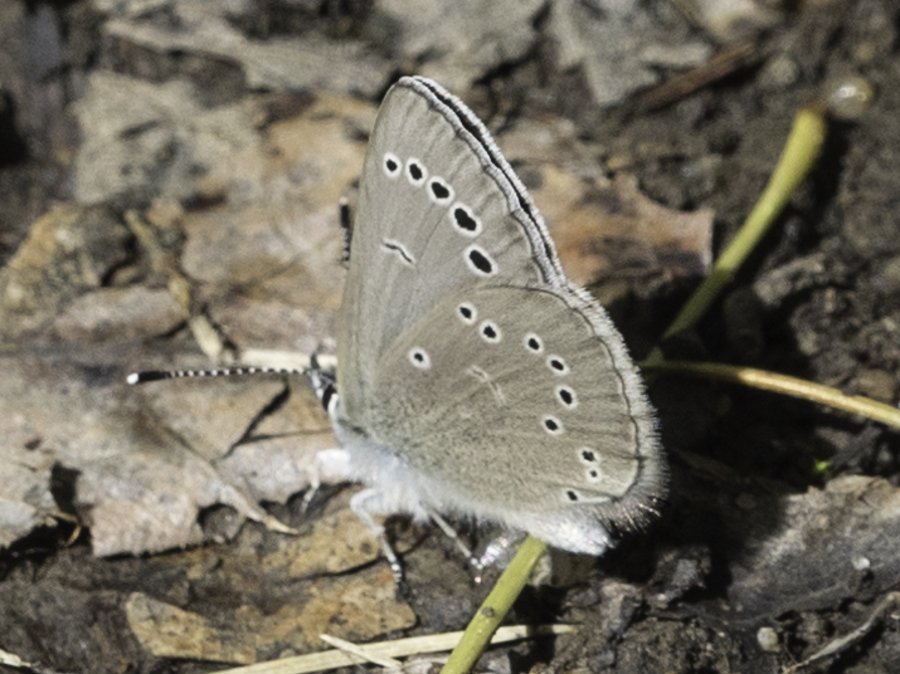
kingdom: Animalia
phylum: Arthropoda
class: Insecta
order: Lepidoptera
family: Lycaenidae
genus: Glaucopsyche
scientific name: Glaucopsyche lygdamus
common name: Silvery Blue
